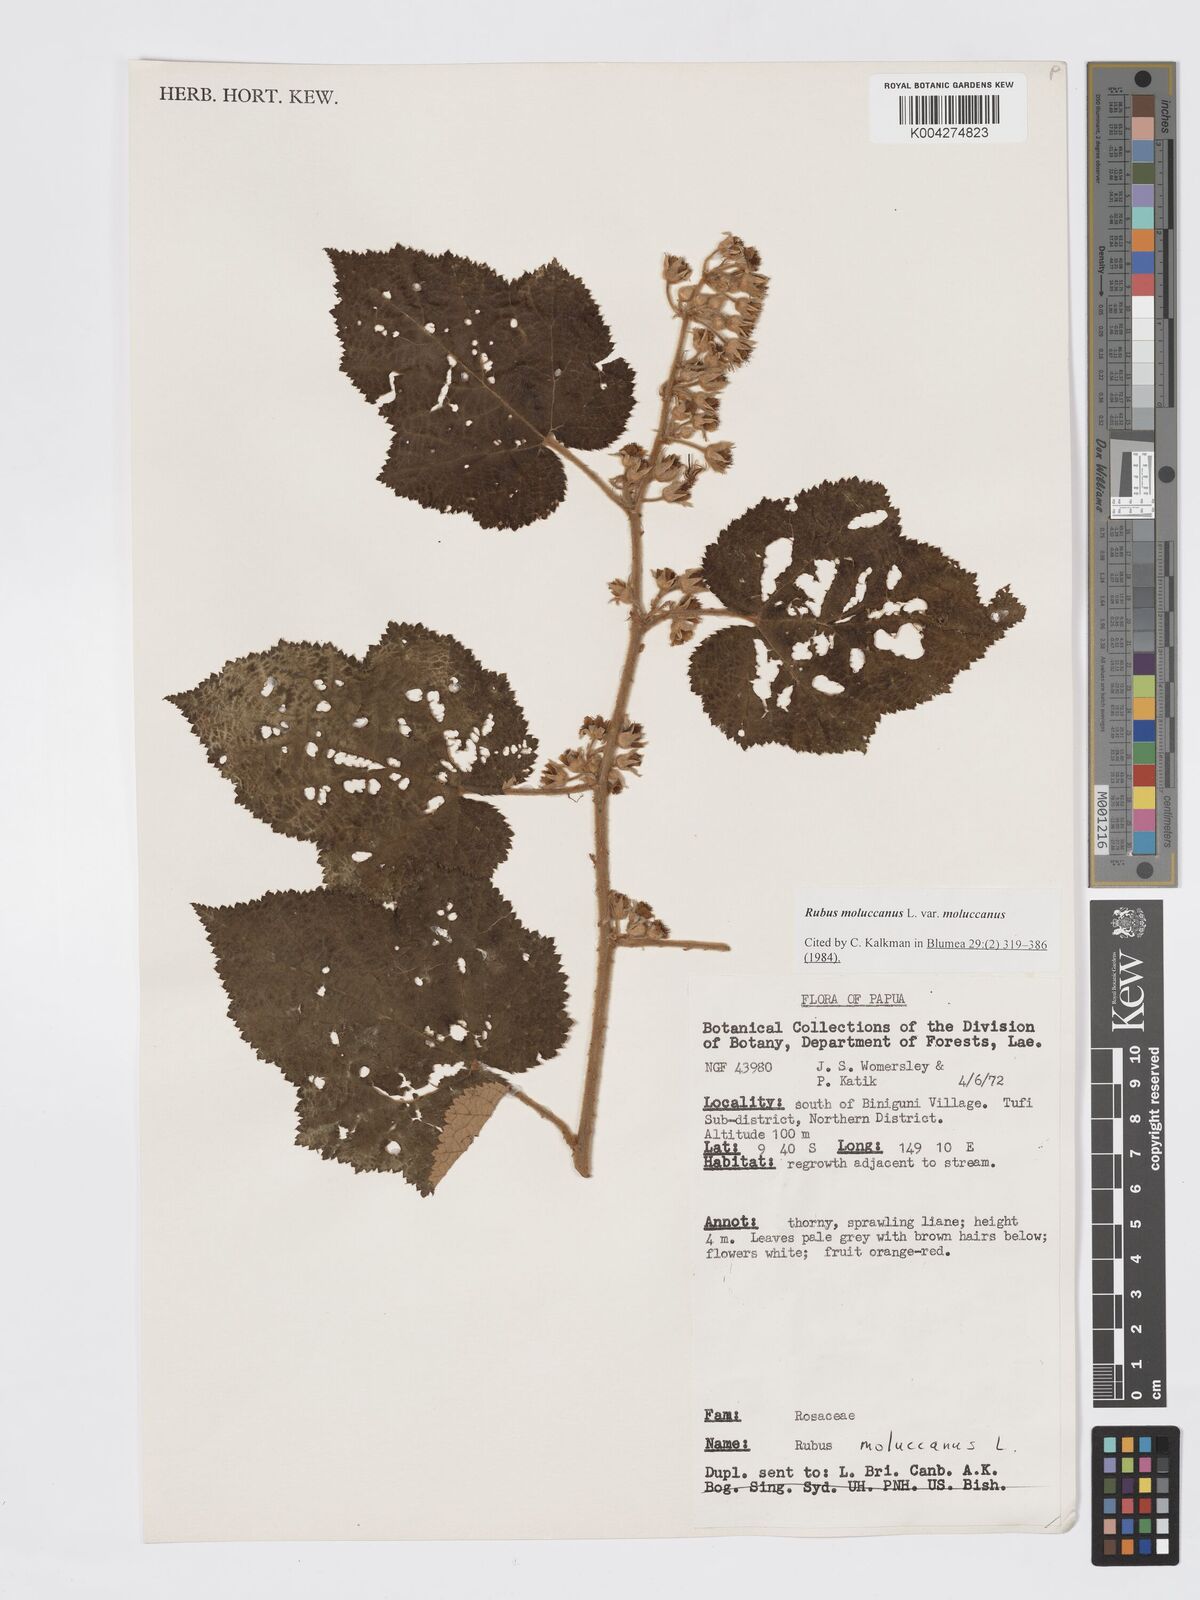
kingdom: Plantae
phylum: Tracheophyta
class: Magnoliopsida
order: Rosales
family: Rosaceae
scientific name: Rosaceae
